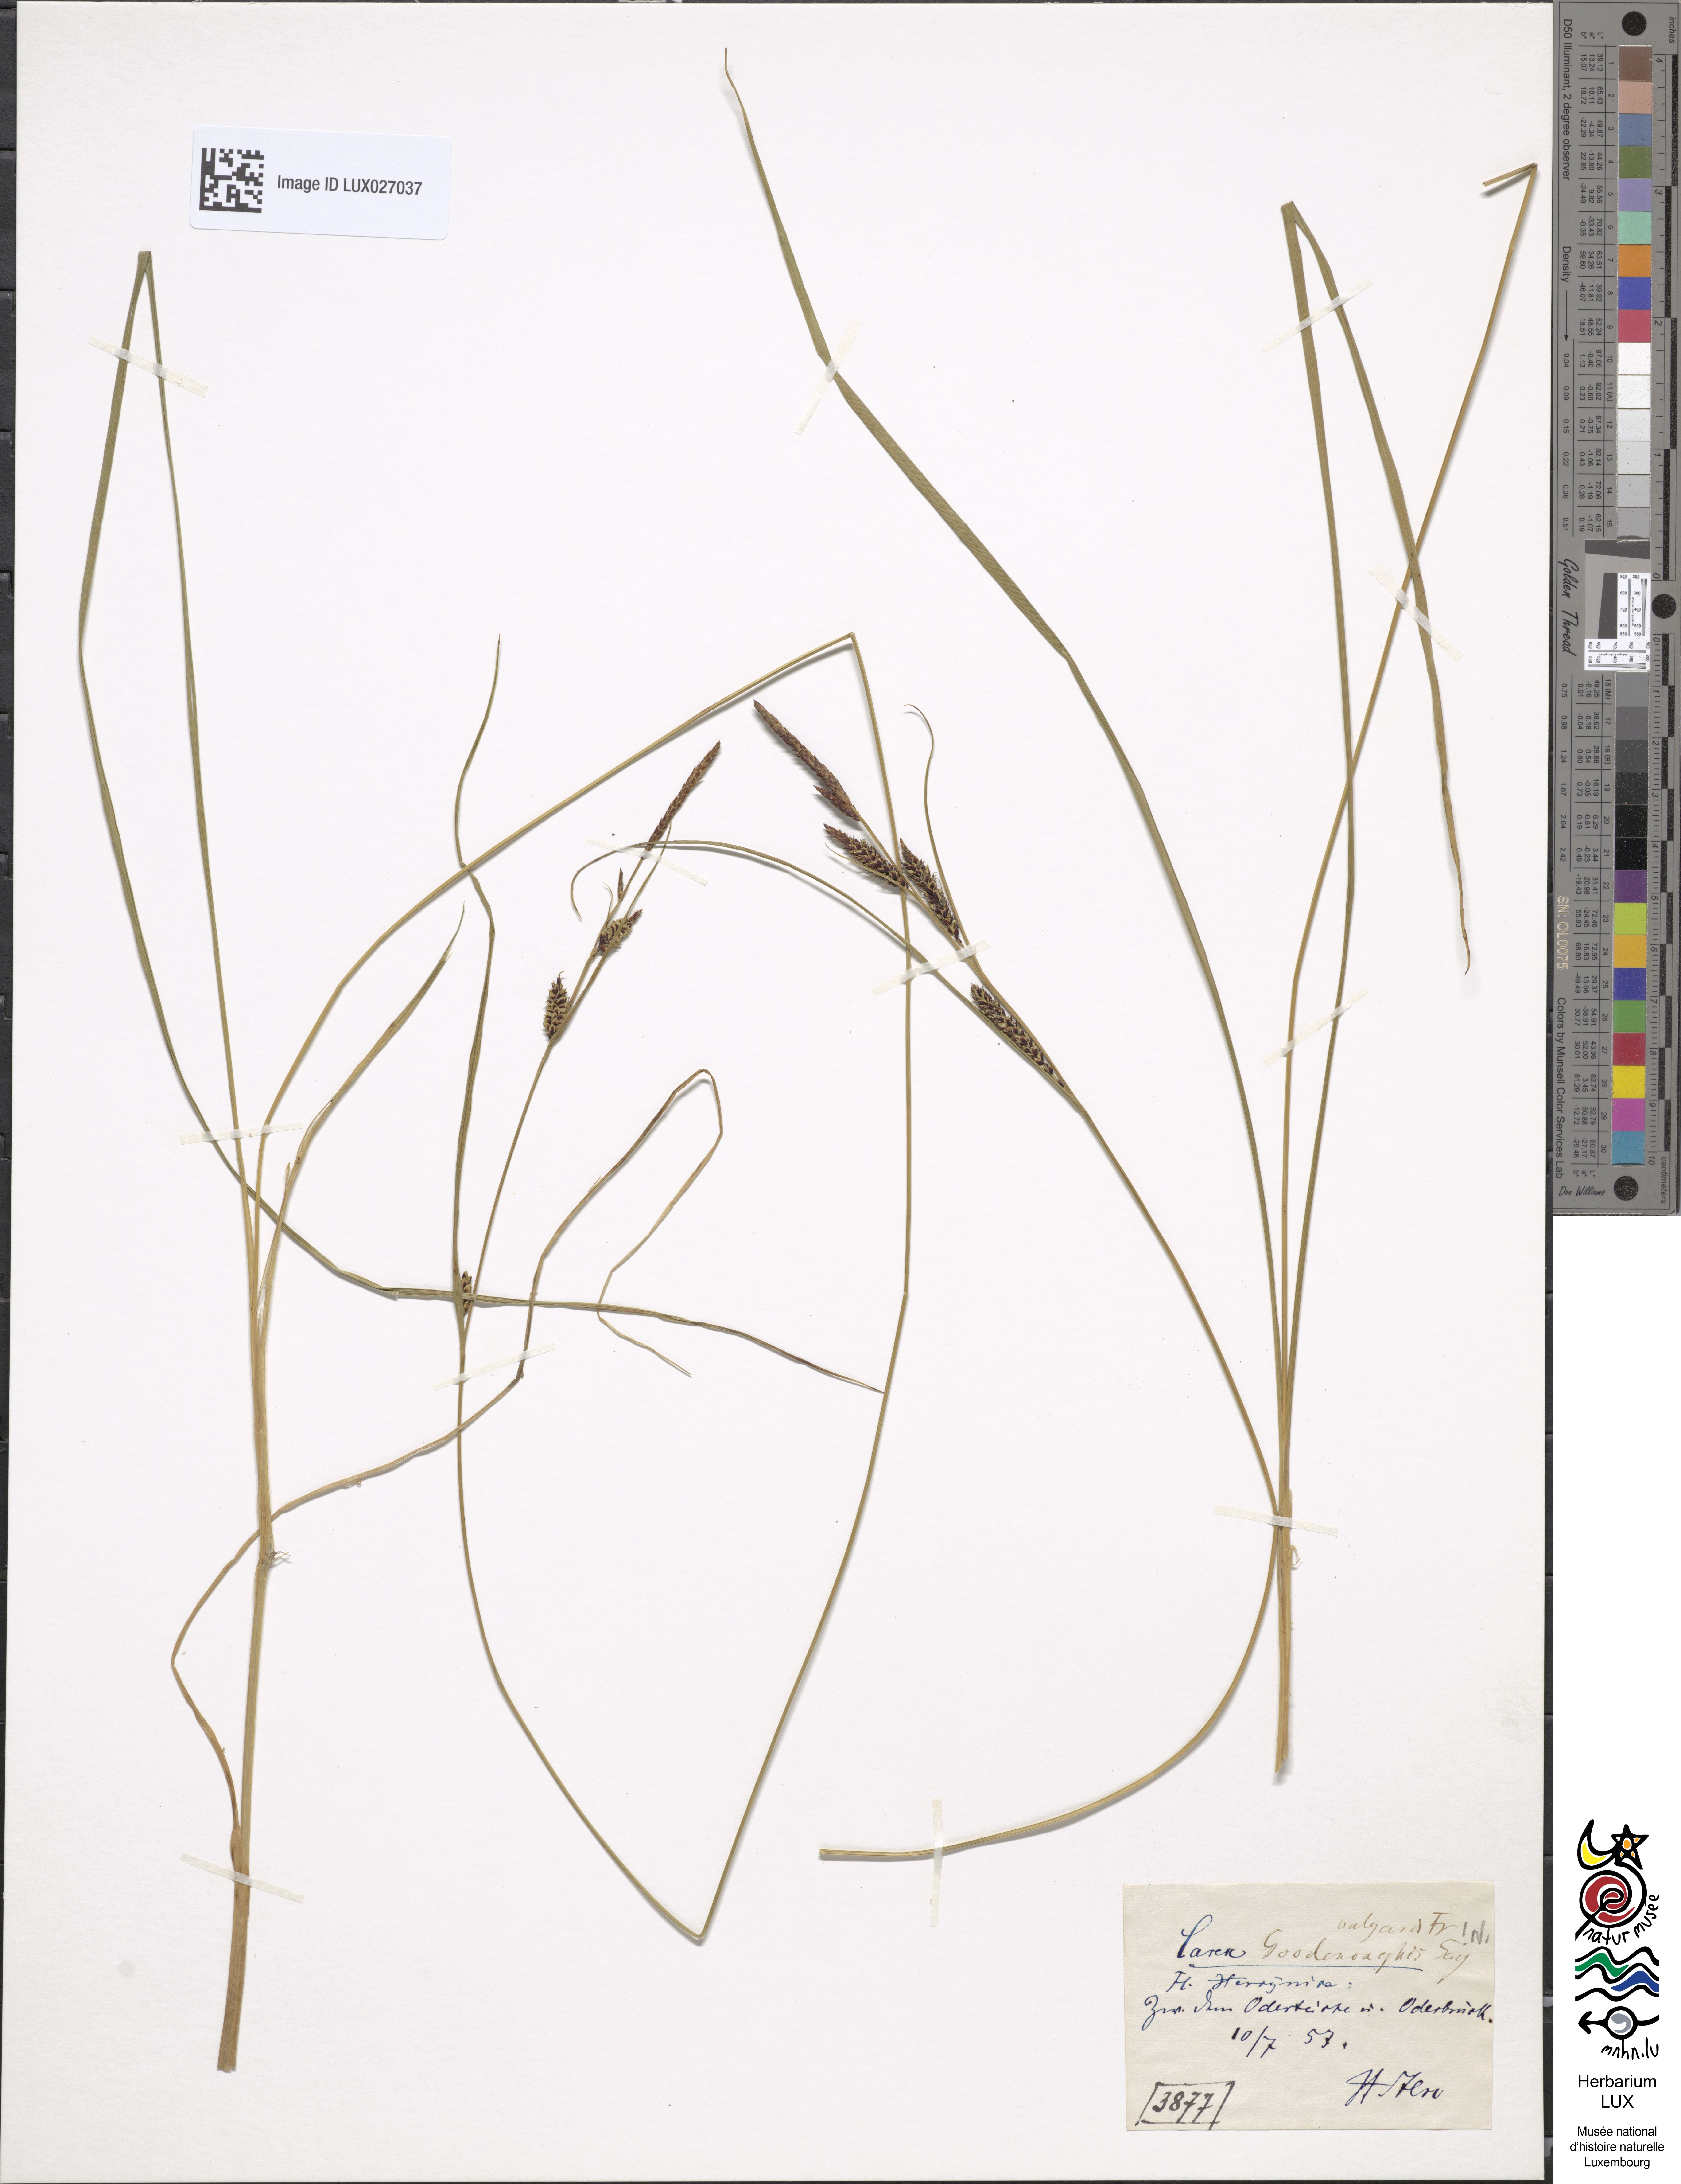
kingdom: Plantae
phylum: Tracheophyta
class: Liliopsida
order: Poales
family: Cyperaceae
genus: Carex
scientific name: Carex nigra
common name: Common sedge
